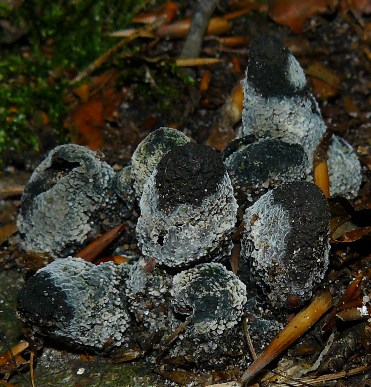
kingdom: Fungi
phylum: Ascomycota
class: Sordariomycetes
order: Xylariales
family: Xylariaceae
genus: Xylaria
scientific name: Xylaria polymorpha
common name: kølle-stødsvamp
